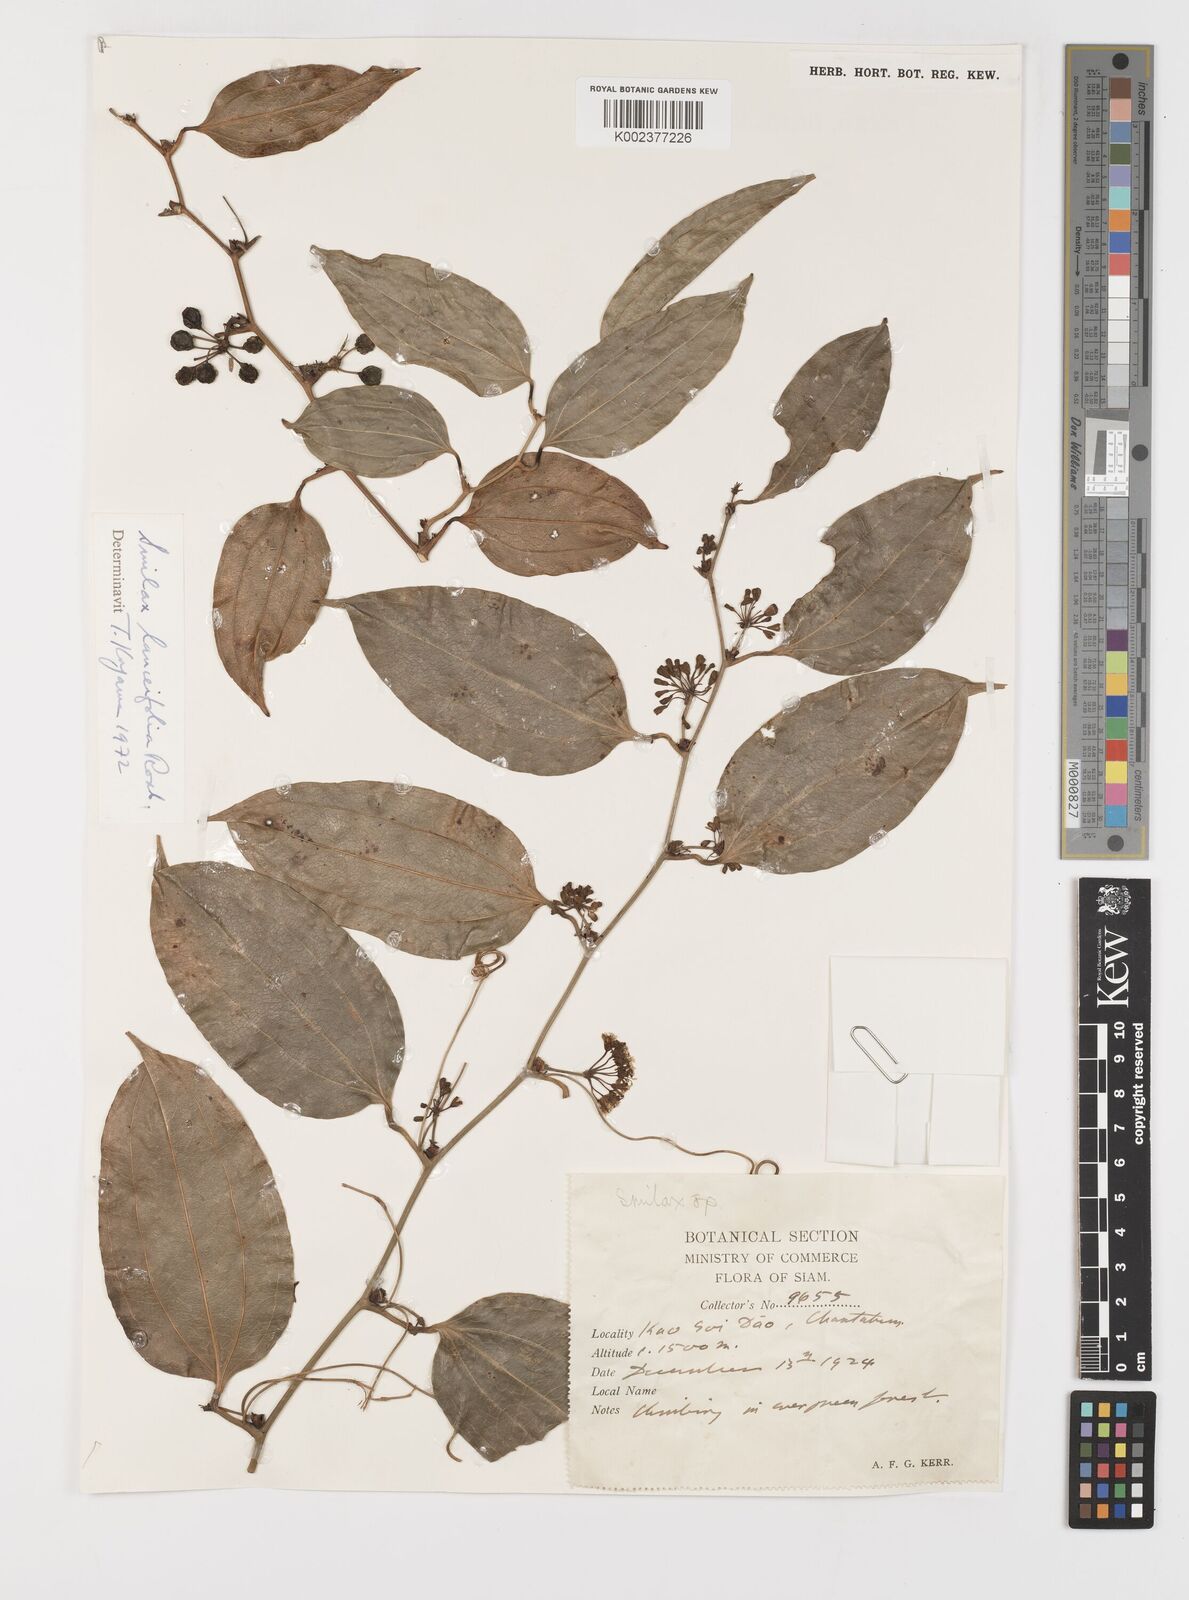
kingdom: Plantae
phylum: Tracheophyta
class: Liliopsida
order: Liliales
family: Smilacaceae
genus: Smilax
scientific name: Smilax lanceifolia
